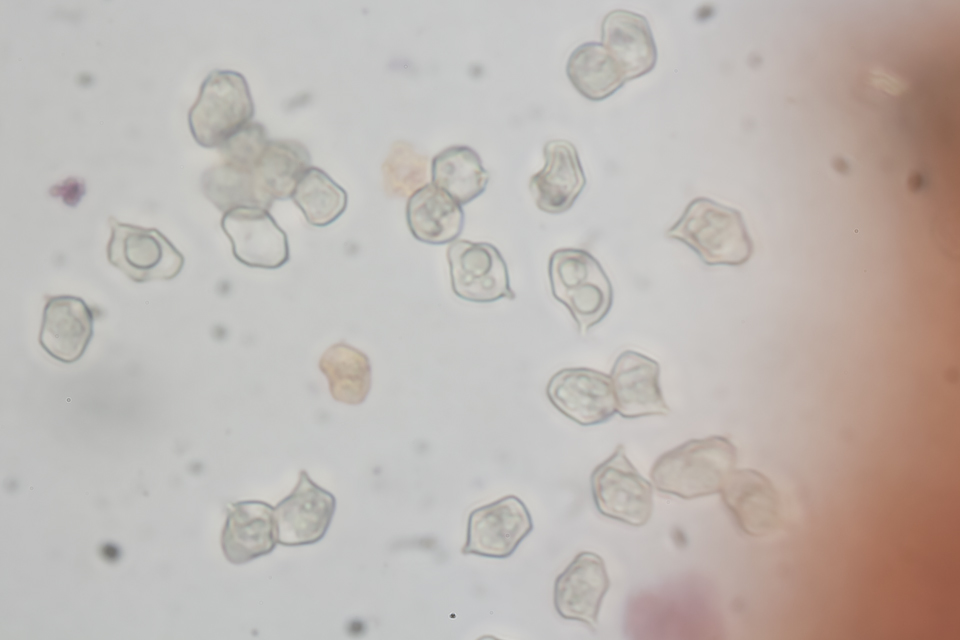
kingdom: Fungi
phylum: Basidiomycota
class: Agaricomycetes
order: Agaricales
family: Entolomataceae
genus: Entoloma
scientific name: Entoloma exile
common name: rødplettet rødblad
